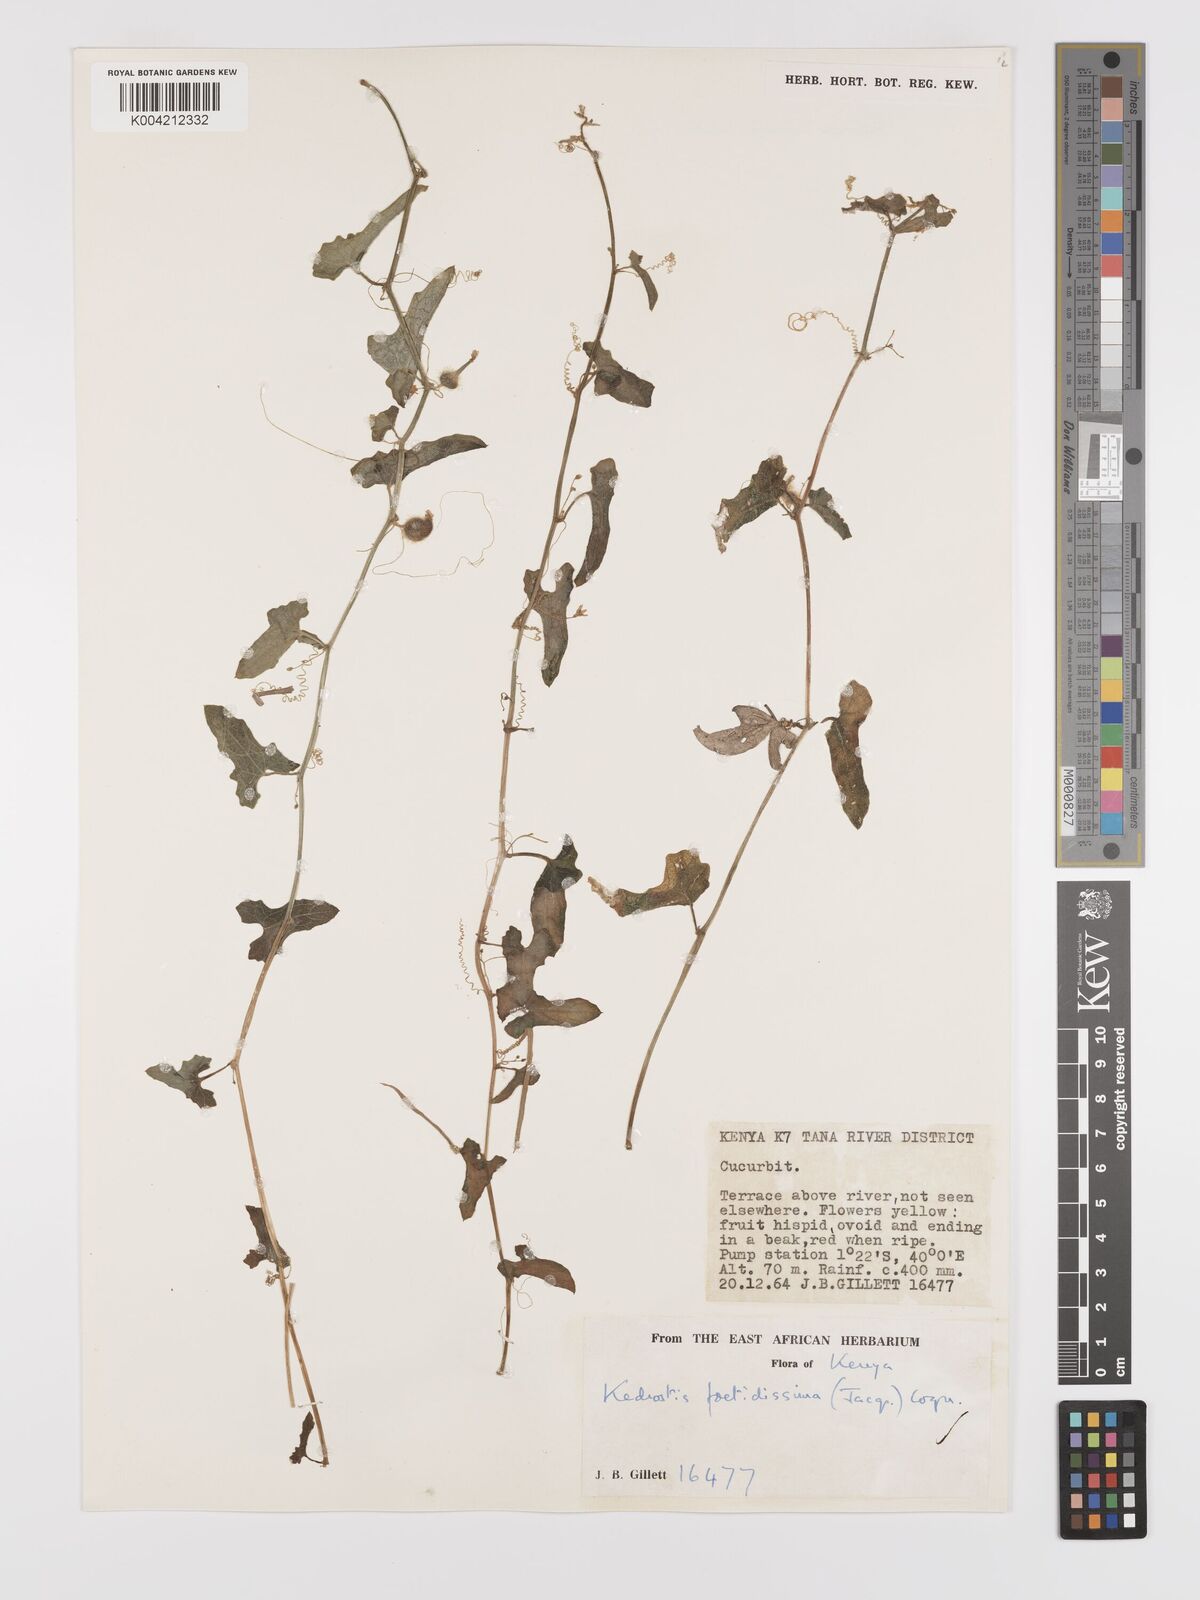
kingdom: Plantae
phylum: Tracheophyta
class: Magnoliopsida
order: Cucurbitales
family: Cucurbitaceae
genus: Kedrostis
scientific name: Kedrostis foetidissima
